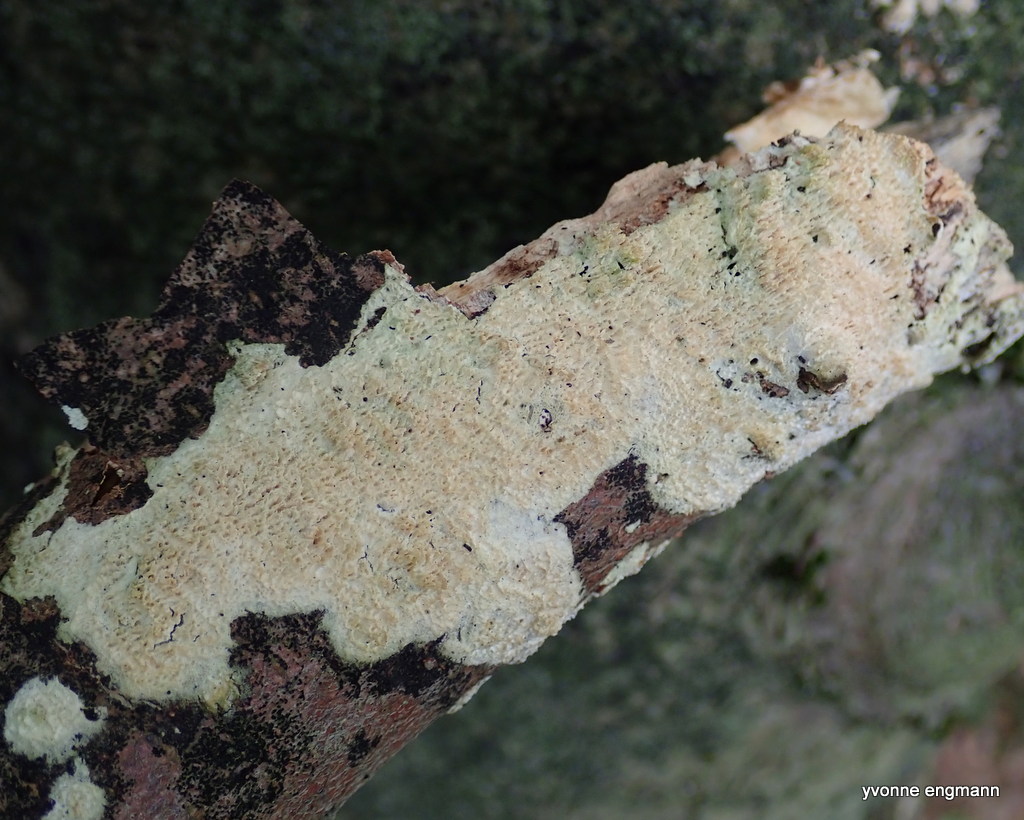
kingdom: Fungi
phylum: Basidiomycota
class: Agaricomycetes
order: Hymenochaetales
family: Schizoporaceae
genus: Xylodon
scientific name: Xylodon
